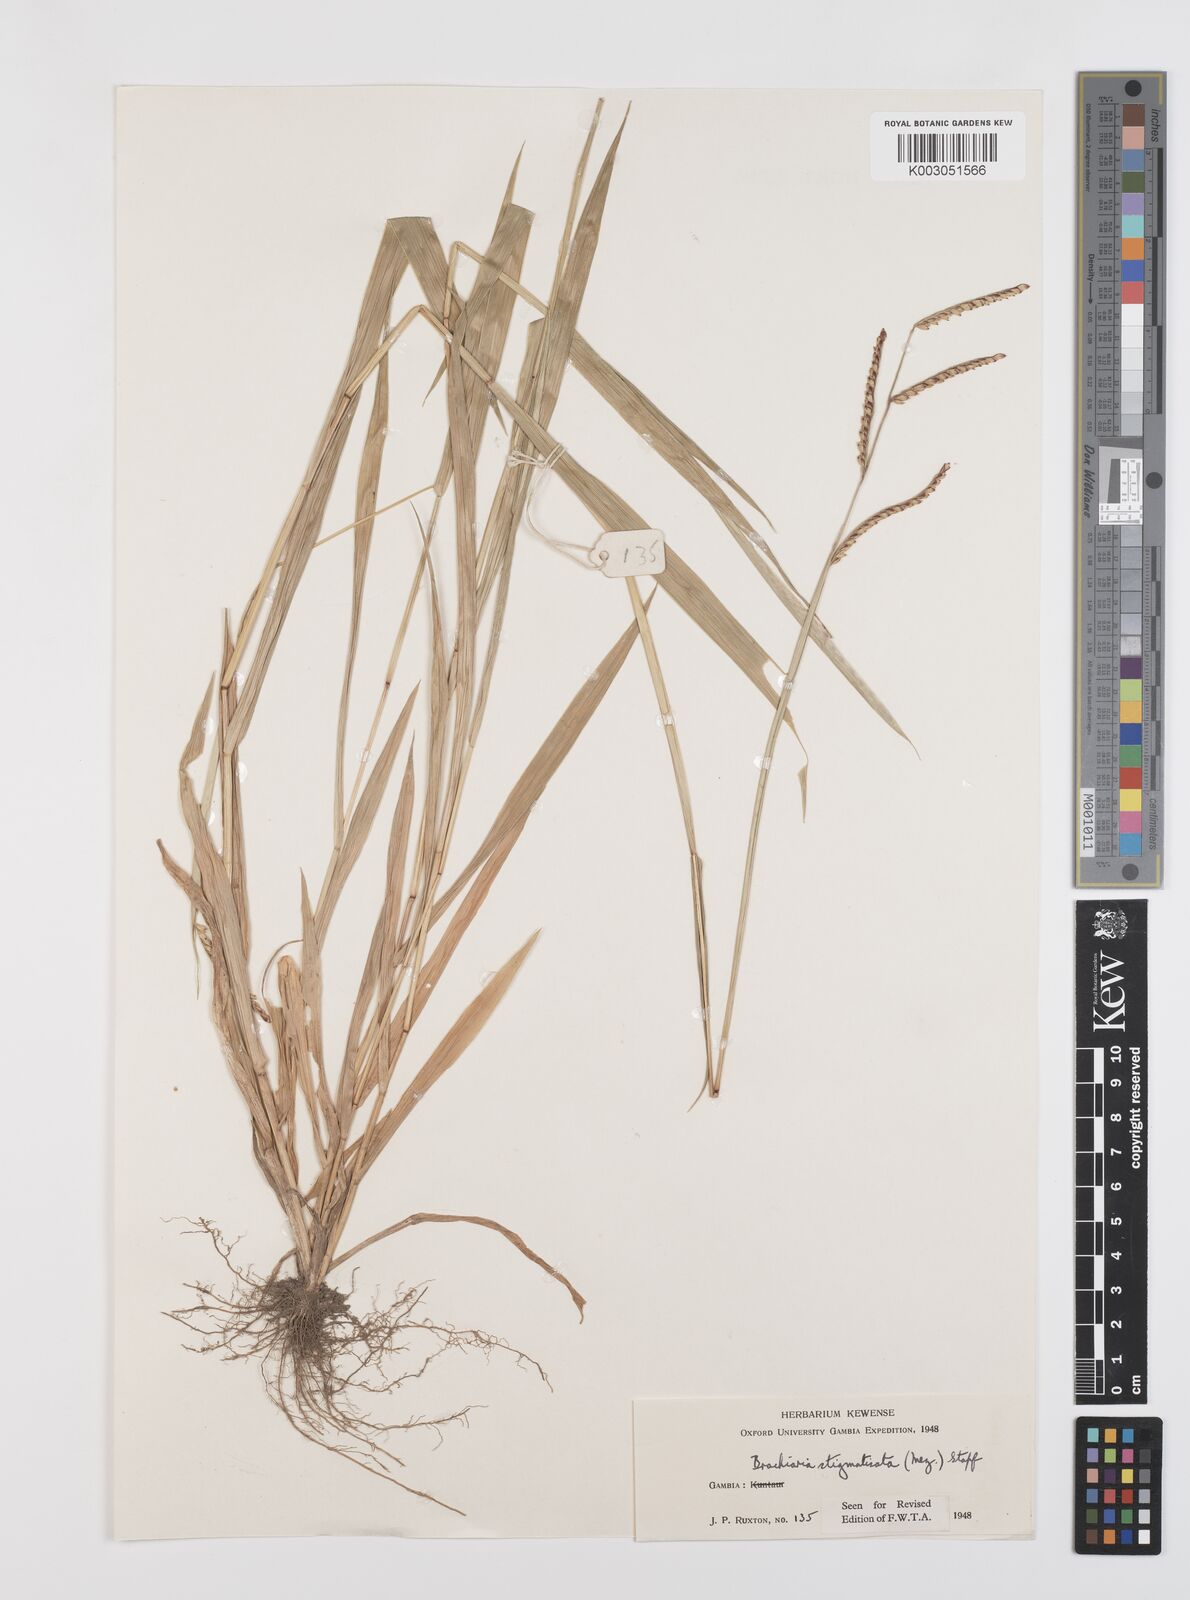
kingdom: Plantae
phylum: Tracheophyta
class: Liliopsida
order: Poales
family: Poaceae
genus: Urochloa
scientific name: Urochloa stigmatisata
